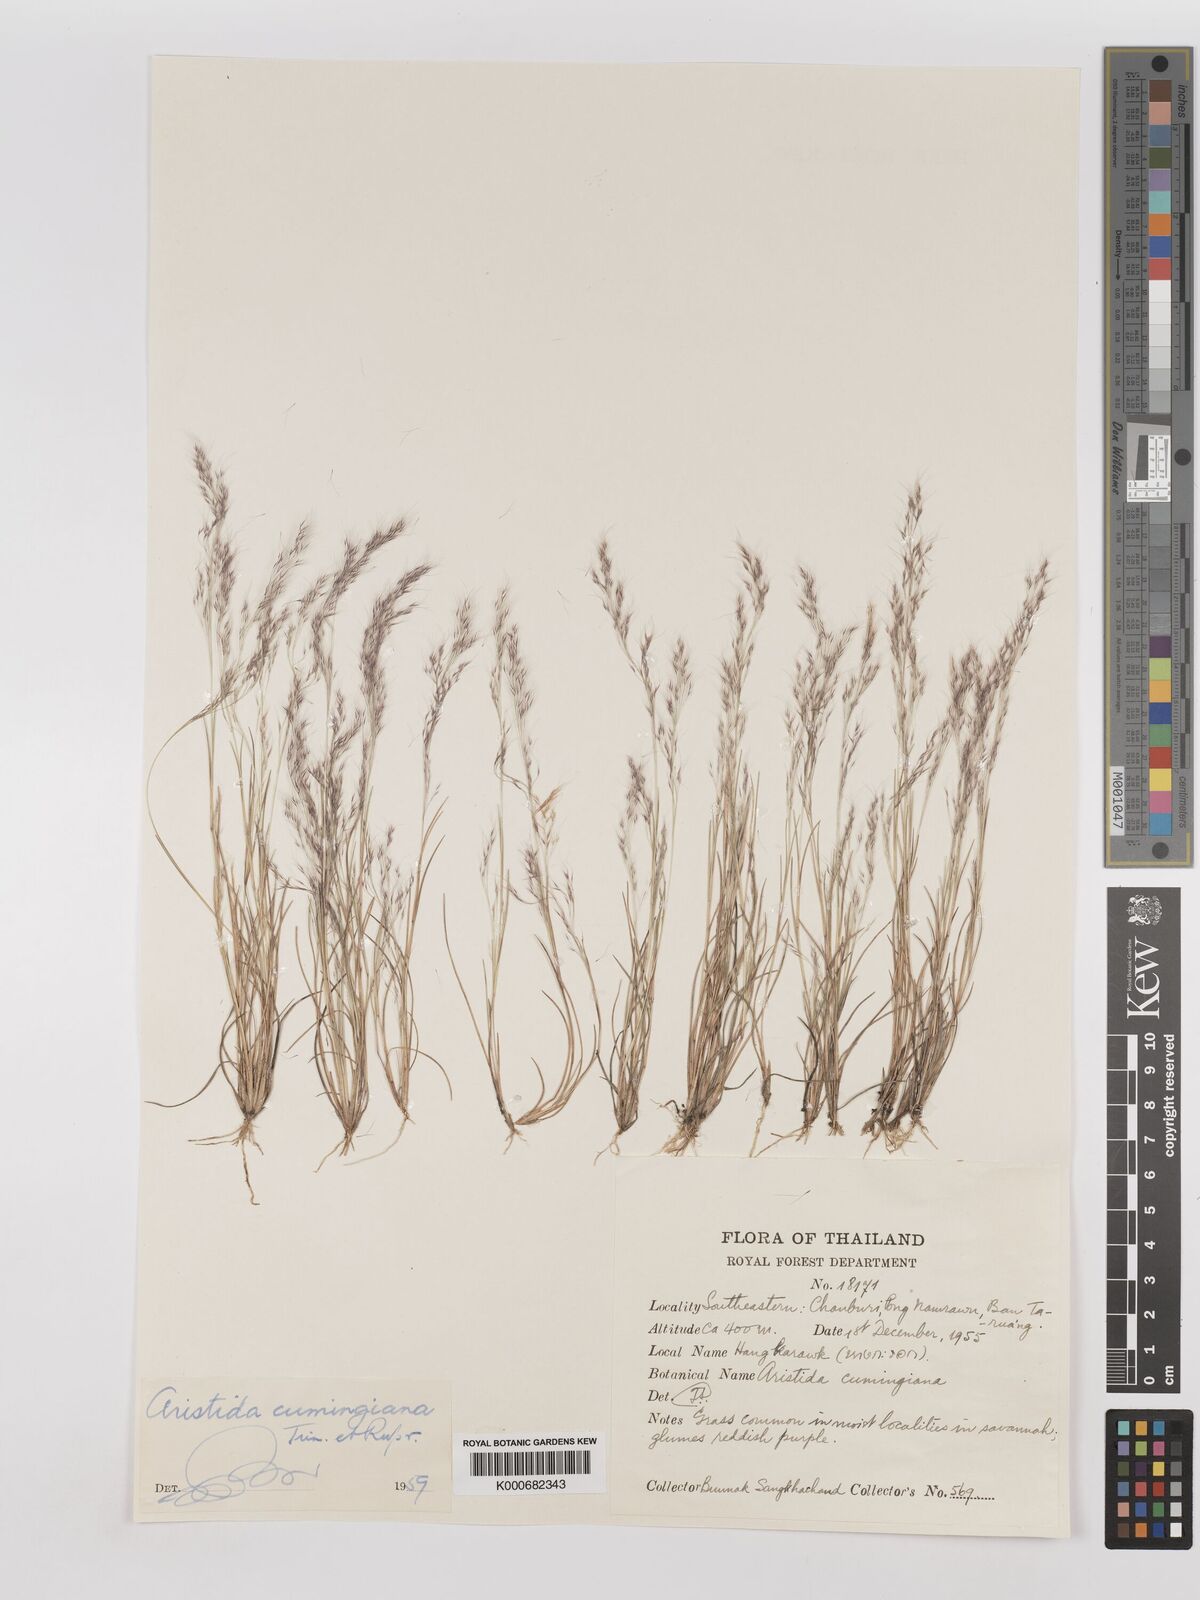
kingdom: Plantae
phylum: Tracheophyta
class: Liliopsida
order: Poales
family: Poaceae
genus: Aristida
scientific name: Aristida cumingiana
